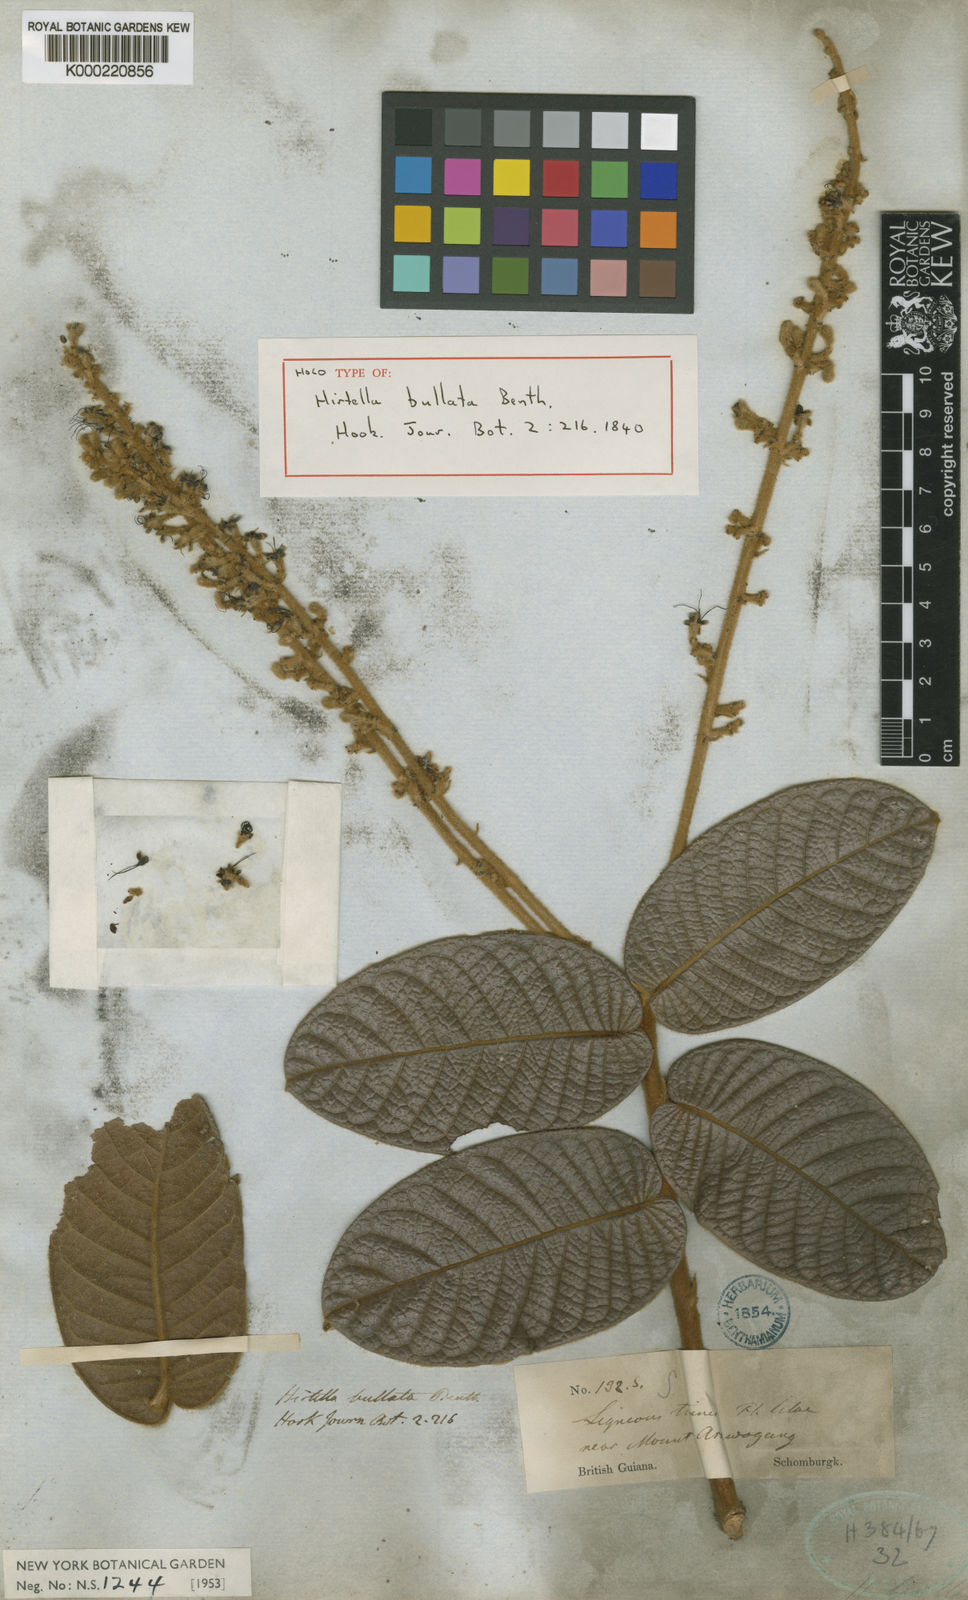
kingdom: Plantae
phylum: Tracheophyta
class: Magnoliopsida
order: Malpighiales
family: Chrysobalanaceae
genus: Hirtella
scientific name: Hirtella bullata
